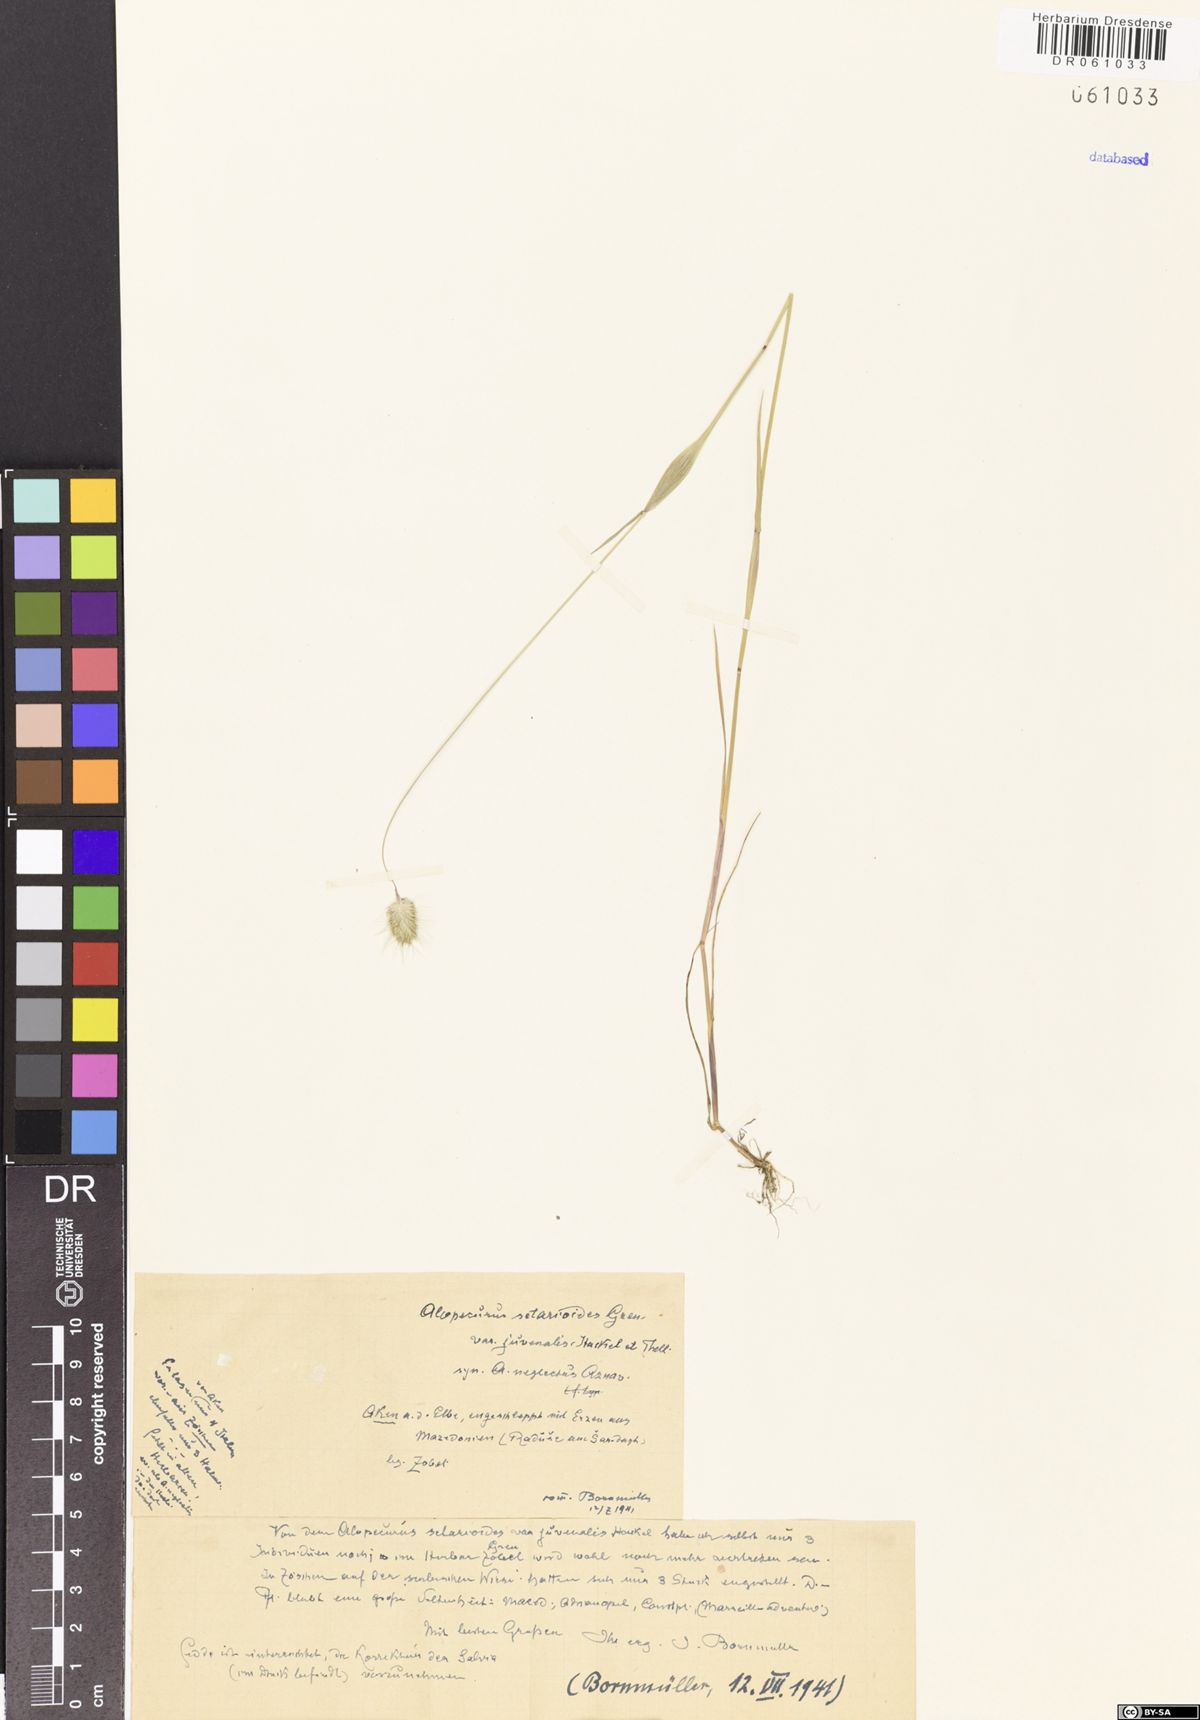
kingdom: Plantae
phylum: Tracheophyta
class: Liliopsida
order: Poales
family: Poaceae
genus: Alopecurus
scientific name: Alopecurus setarioides
